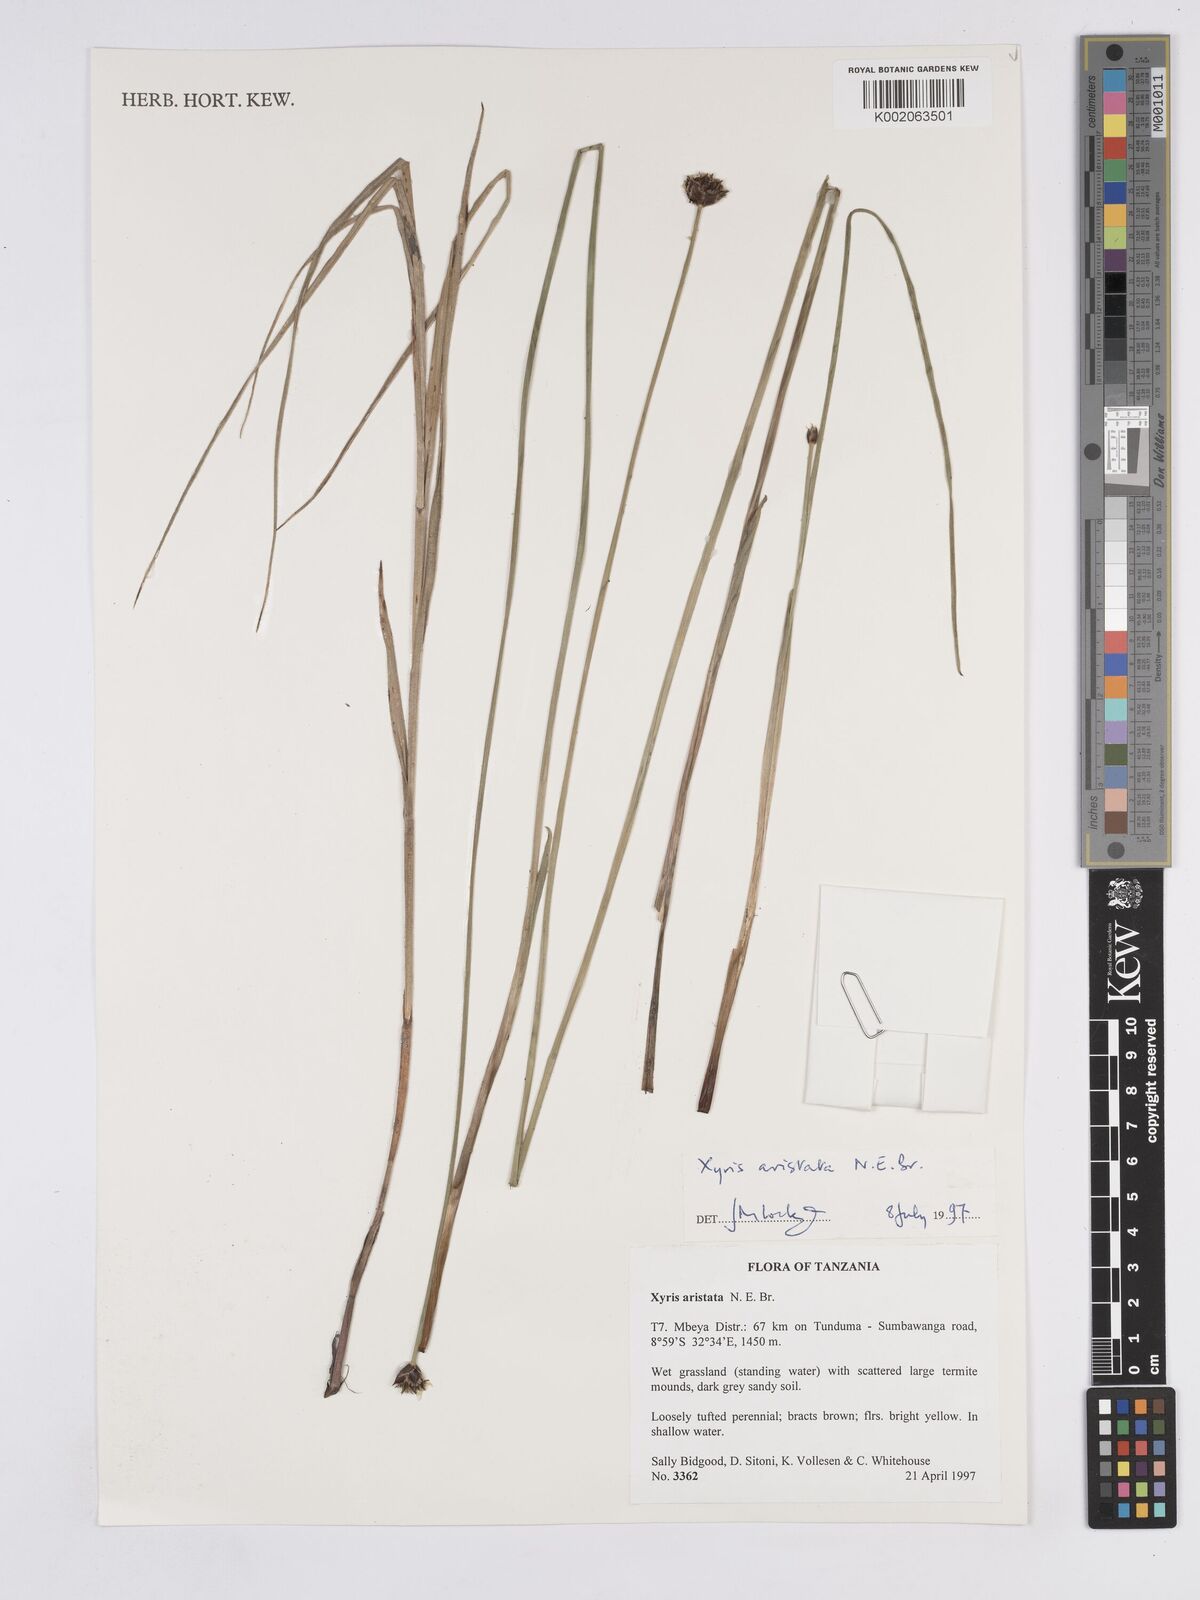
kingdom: Plantae
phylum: Tracheophyta
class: Liliopsida
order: Poales
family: Xyridaceae
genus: Xyris
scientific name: Xyris aristata
